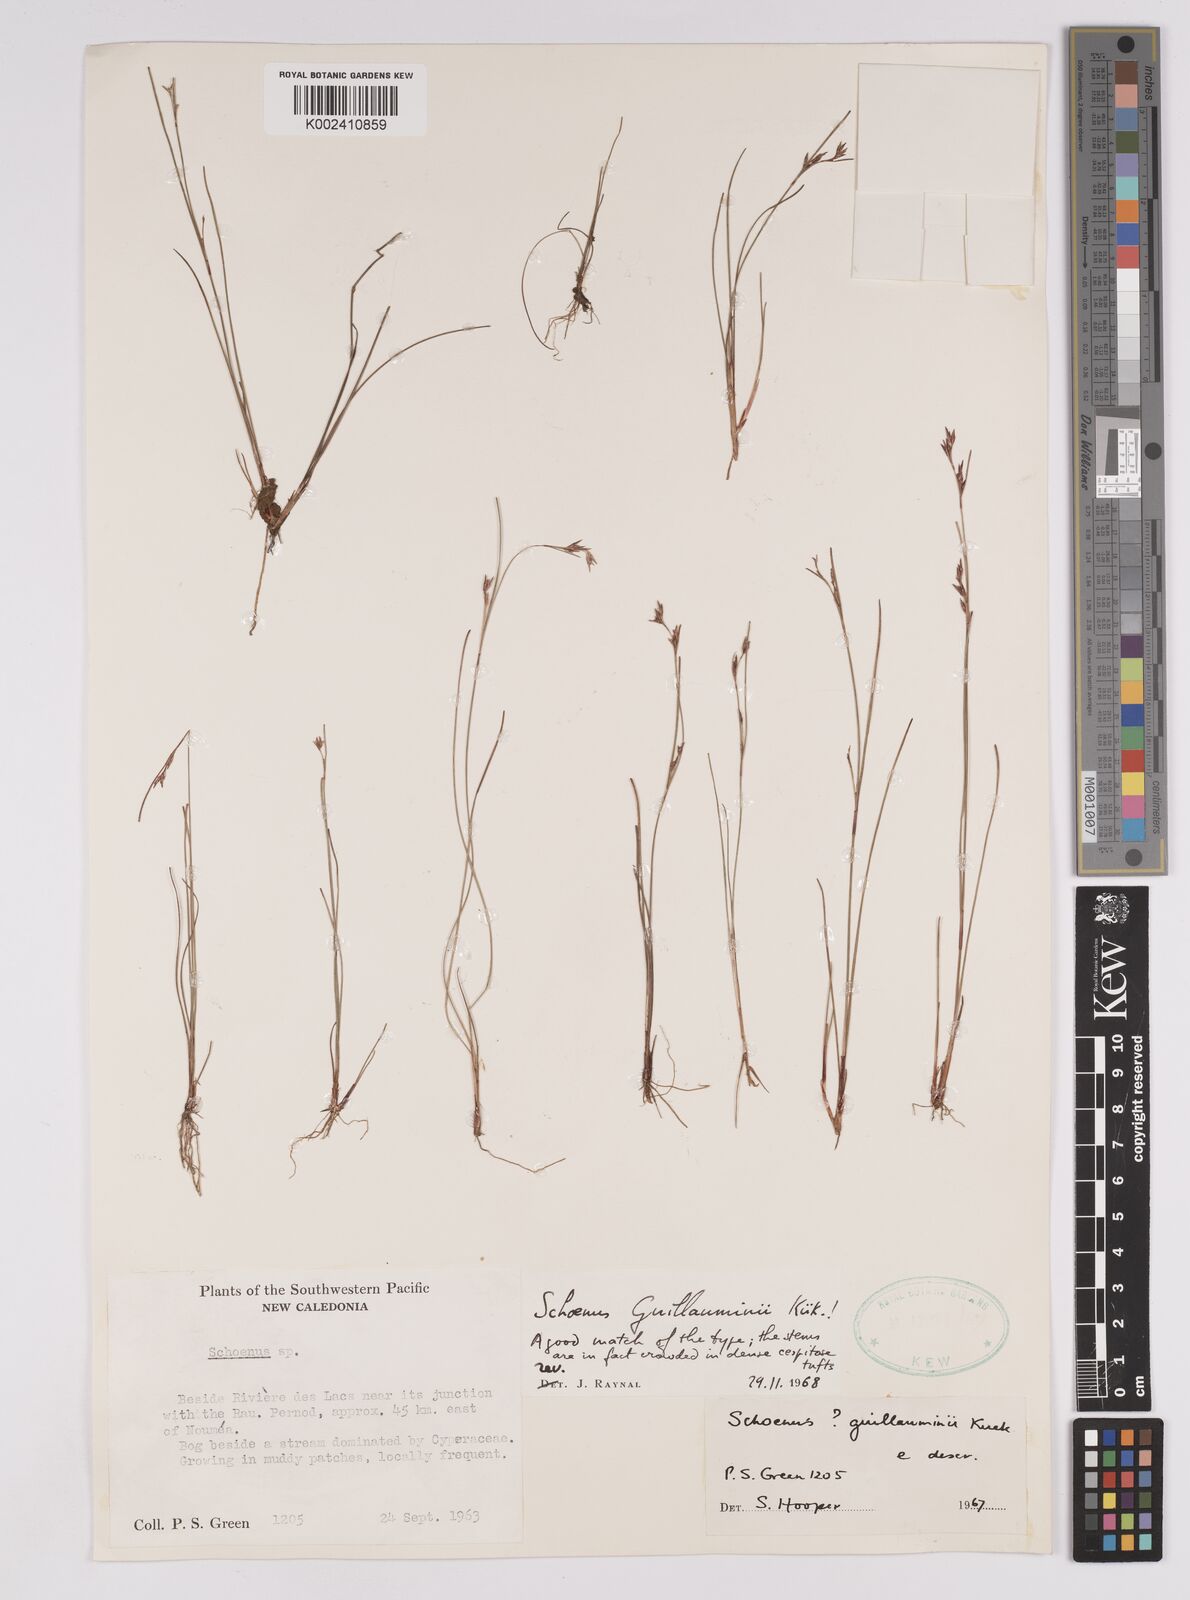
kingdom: Plantae
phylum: Tracheophyta
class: Liliopsida
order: Poales
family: Cyperaceae
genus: Anthelepis
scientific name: Anthelepis guillauminii
